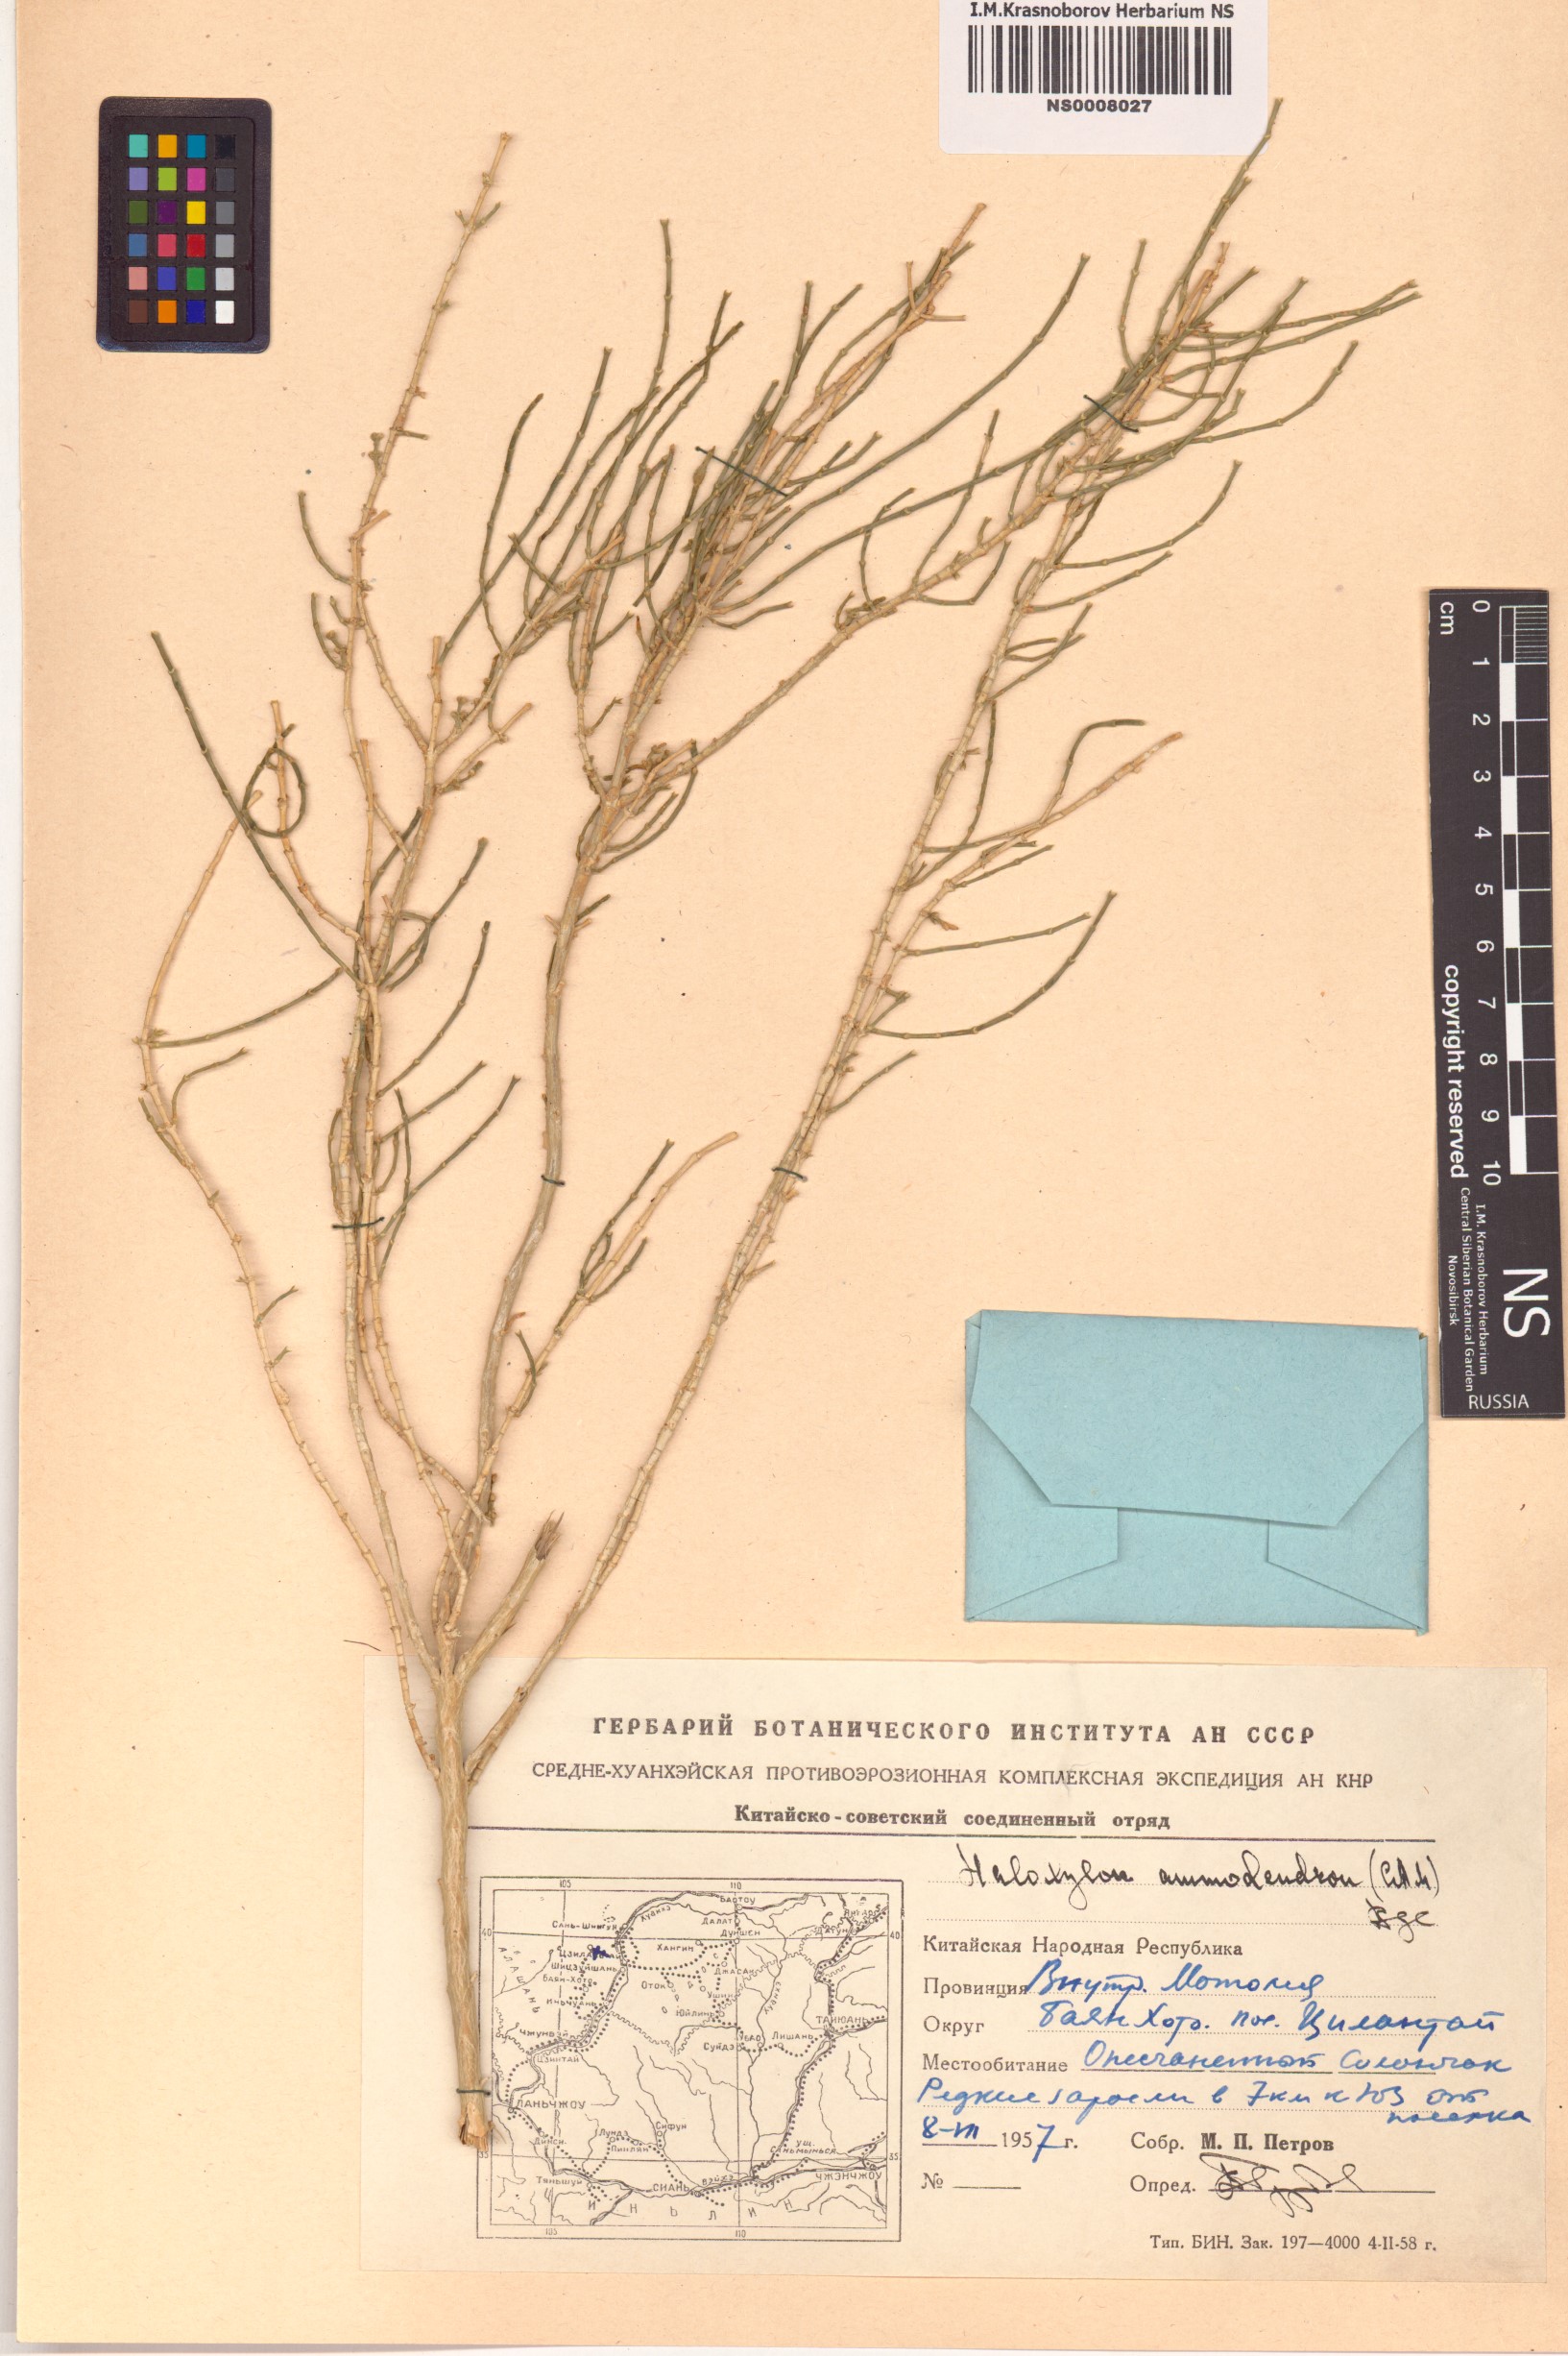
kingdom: Plantae
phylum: Tracheophyta
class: Magnoliopsida
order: Caryophyllales
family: Amaranthaceae
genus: Haloxylon
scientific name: Haloxylon ammodendron
